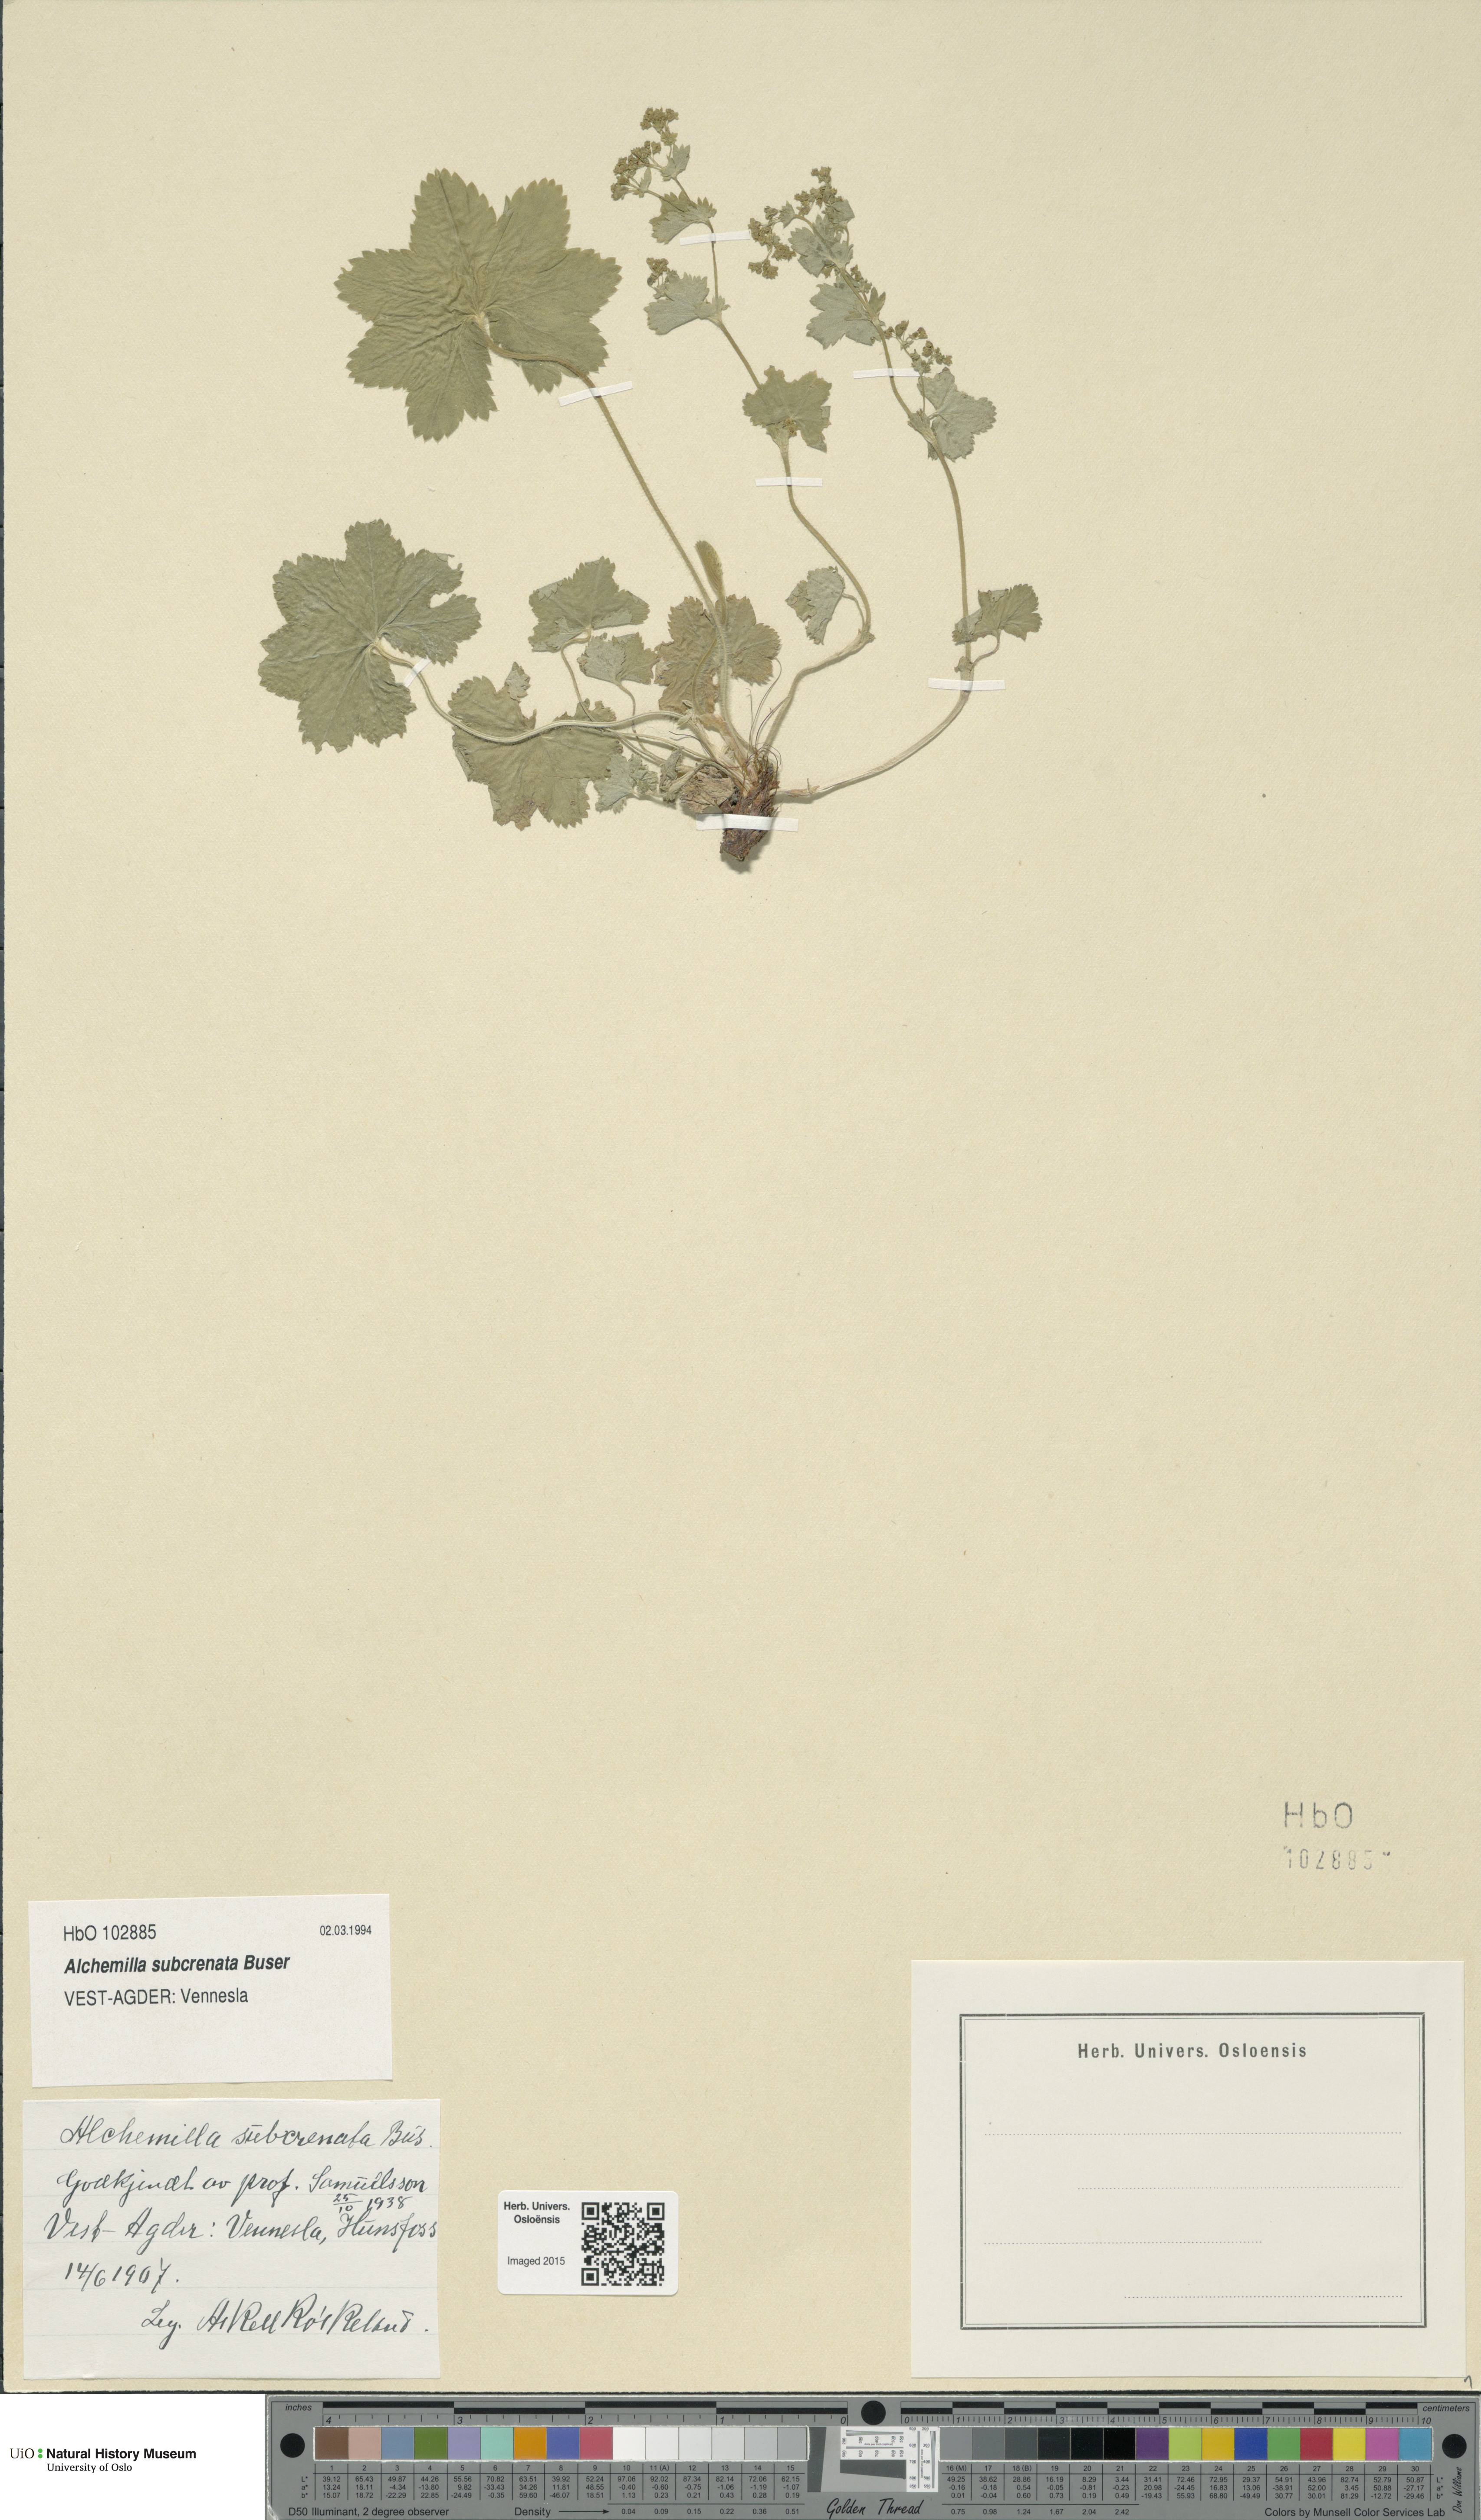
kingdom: Plantae
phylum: Tracheophyta
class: Magnoliopsida
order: Rosales
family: Rosaceae
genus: Alchemilla
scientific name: Alchemilla subcrenata
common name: Broadtooth lady's mantle
